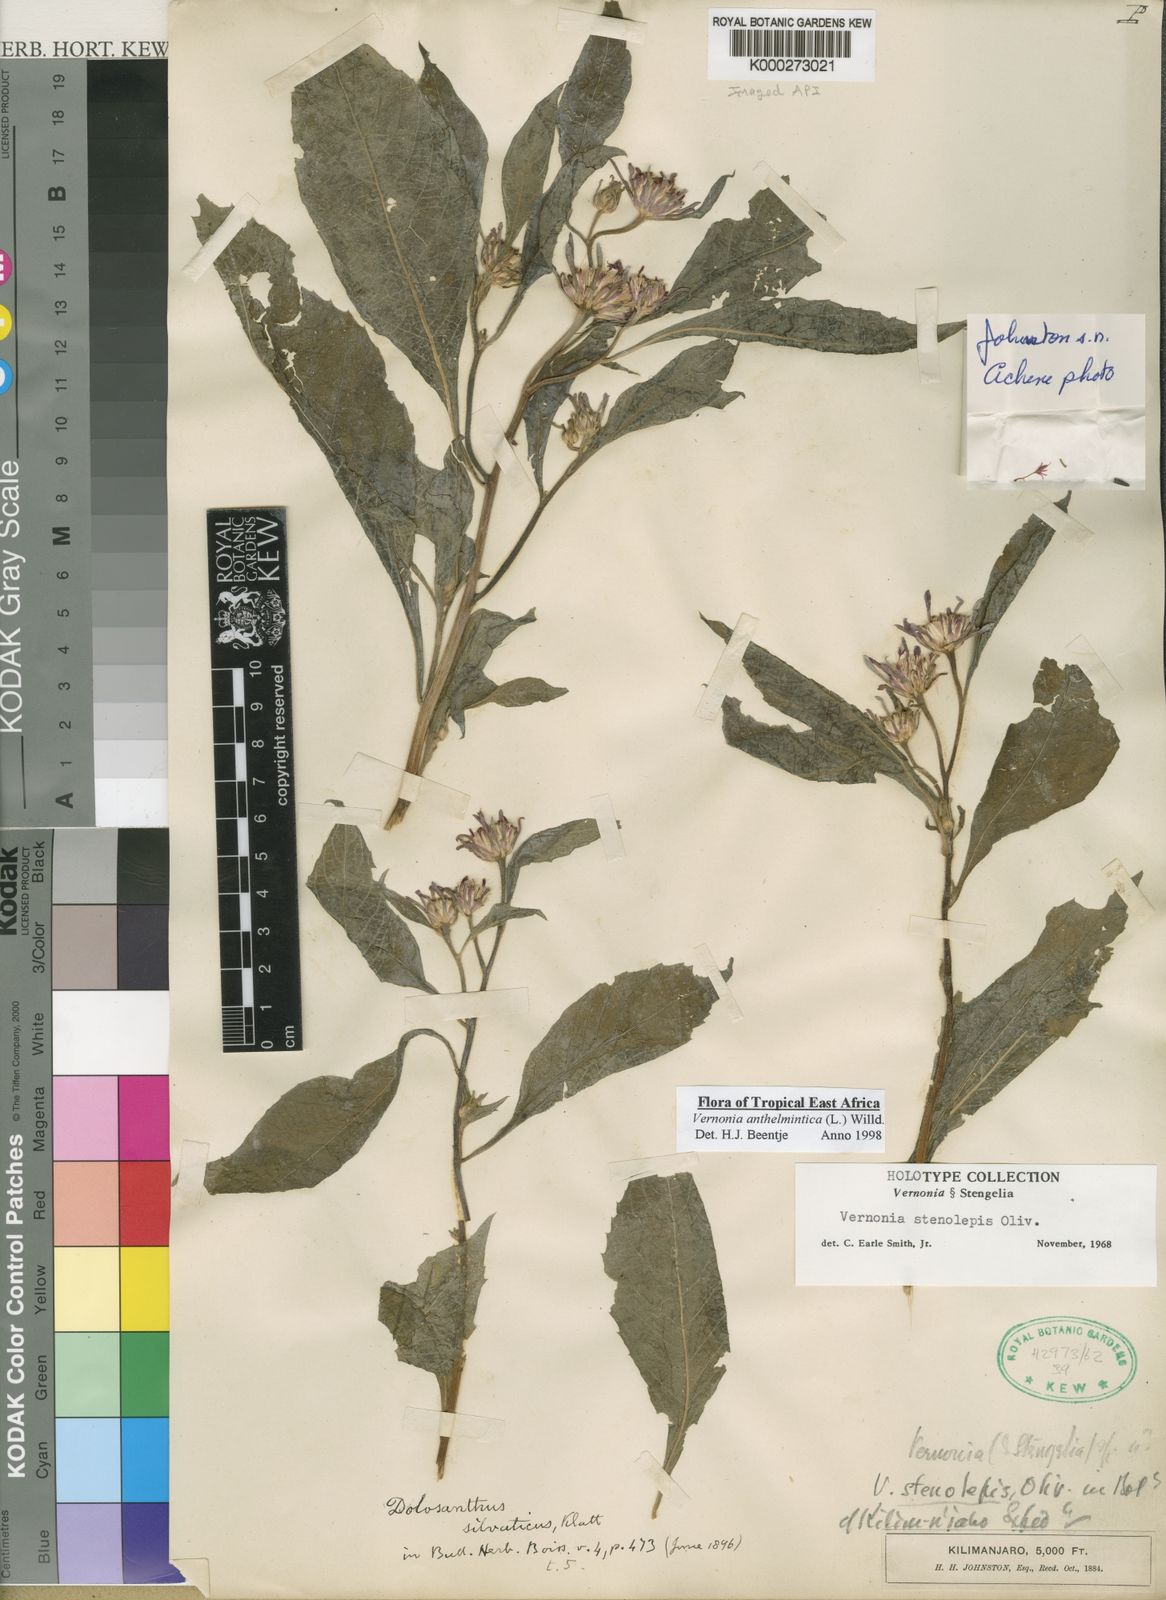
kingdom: Plantae
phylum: Tracheophyta
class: Magnoliopsida
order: Asterales
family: Asteraceae
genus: Baccharoides
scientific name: Baccharoides anthelmintica
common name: Kinka-oil
